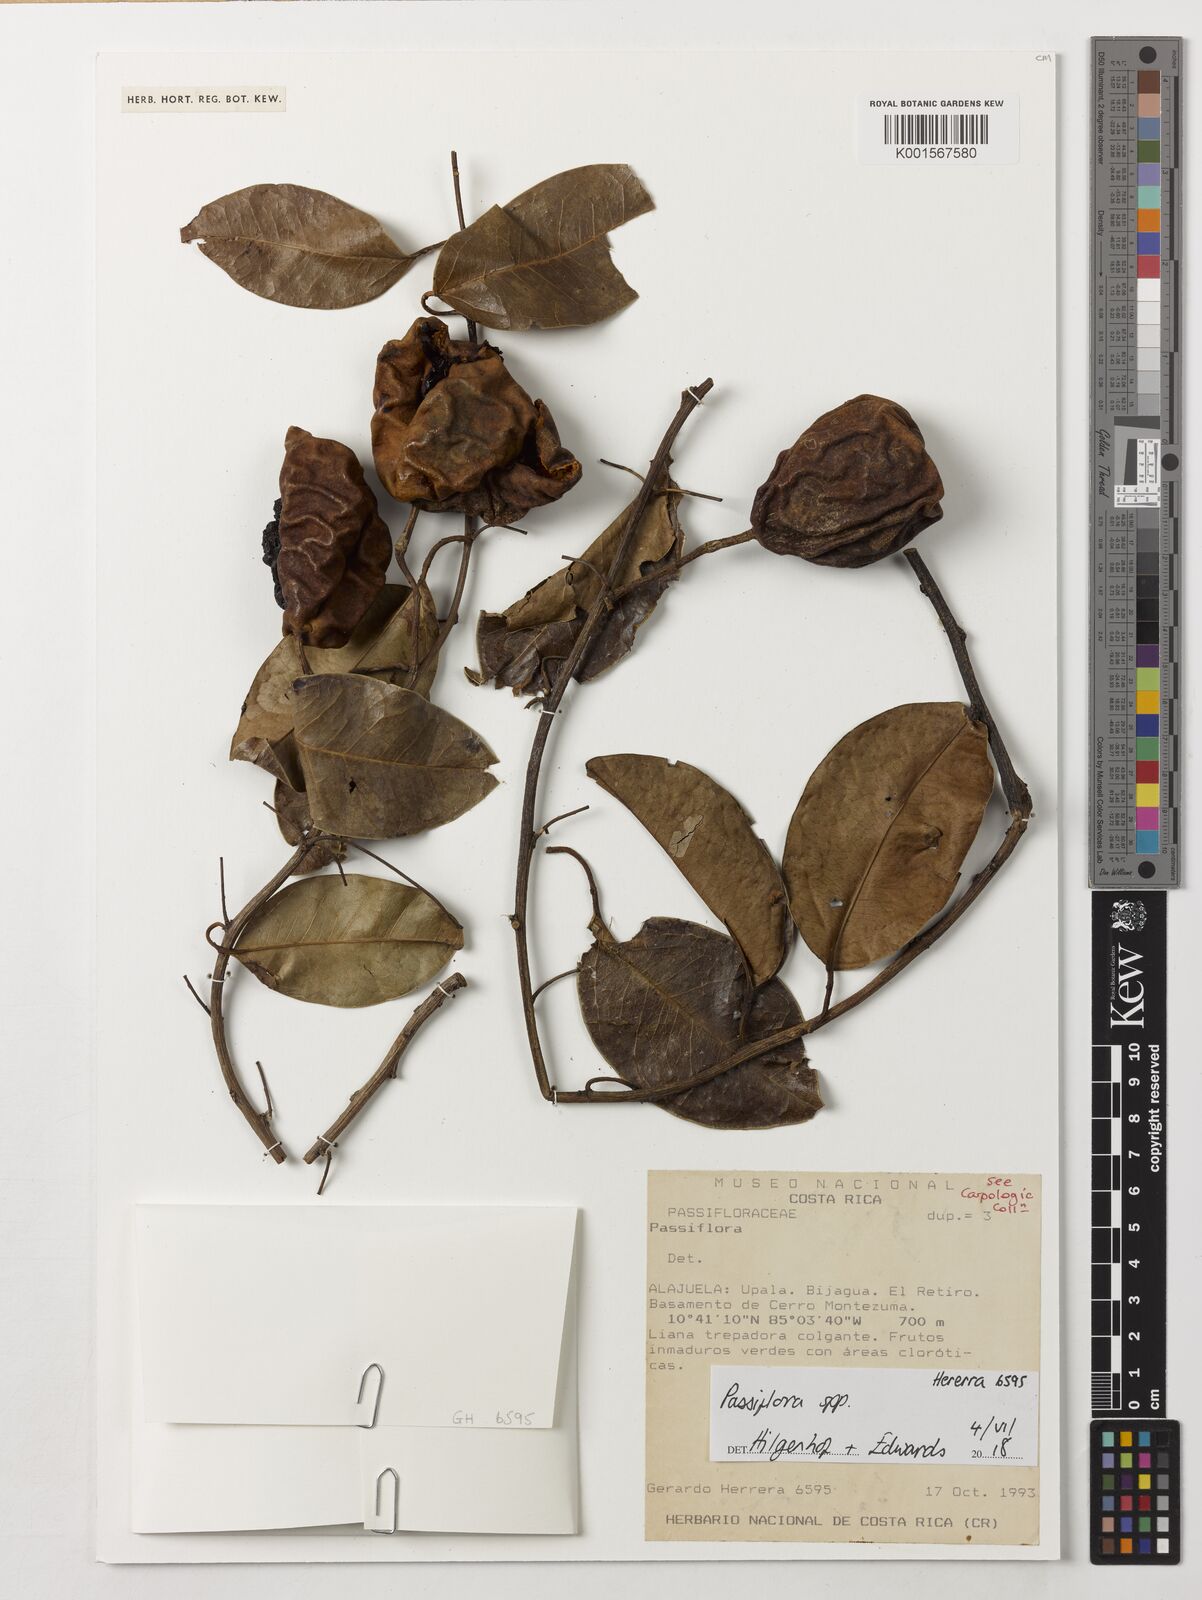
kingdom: Plantae
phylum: Tracheophyta
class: Magnoliopsida
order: Malpighiales
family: Passifloraceae
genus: Passiflora
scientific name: Passiflora
